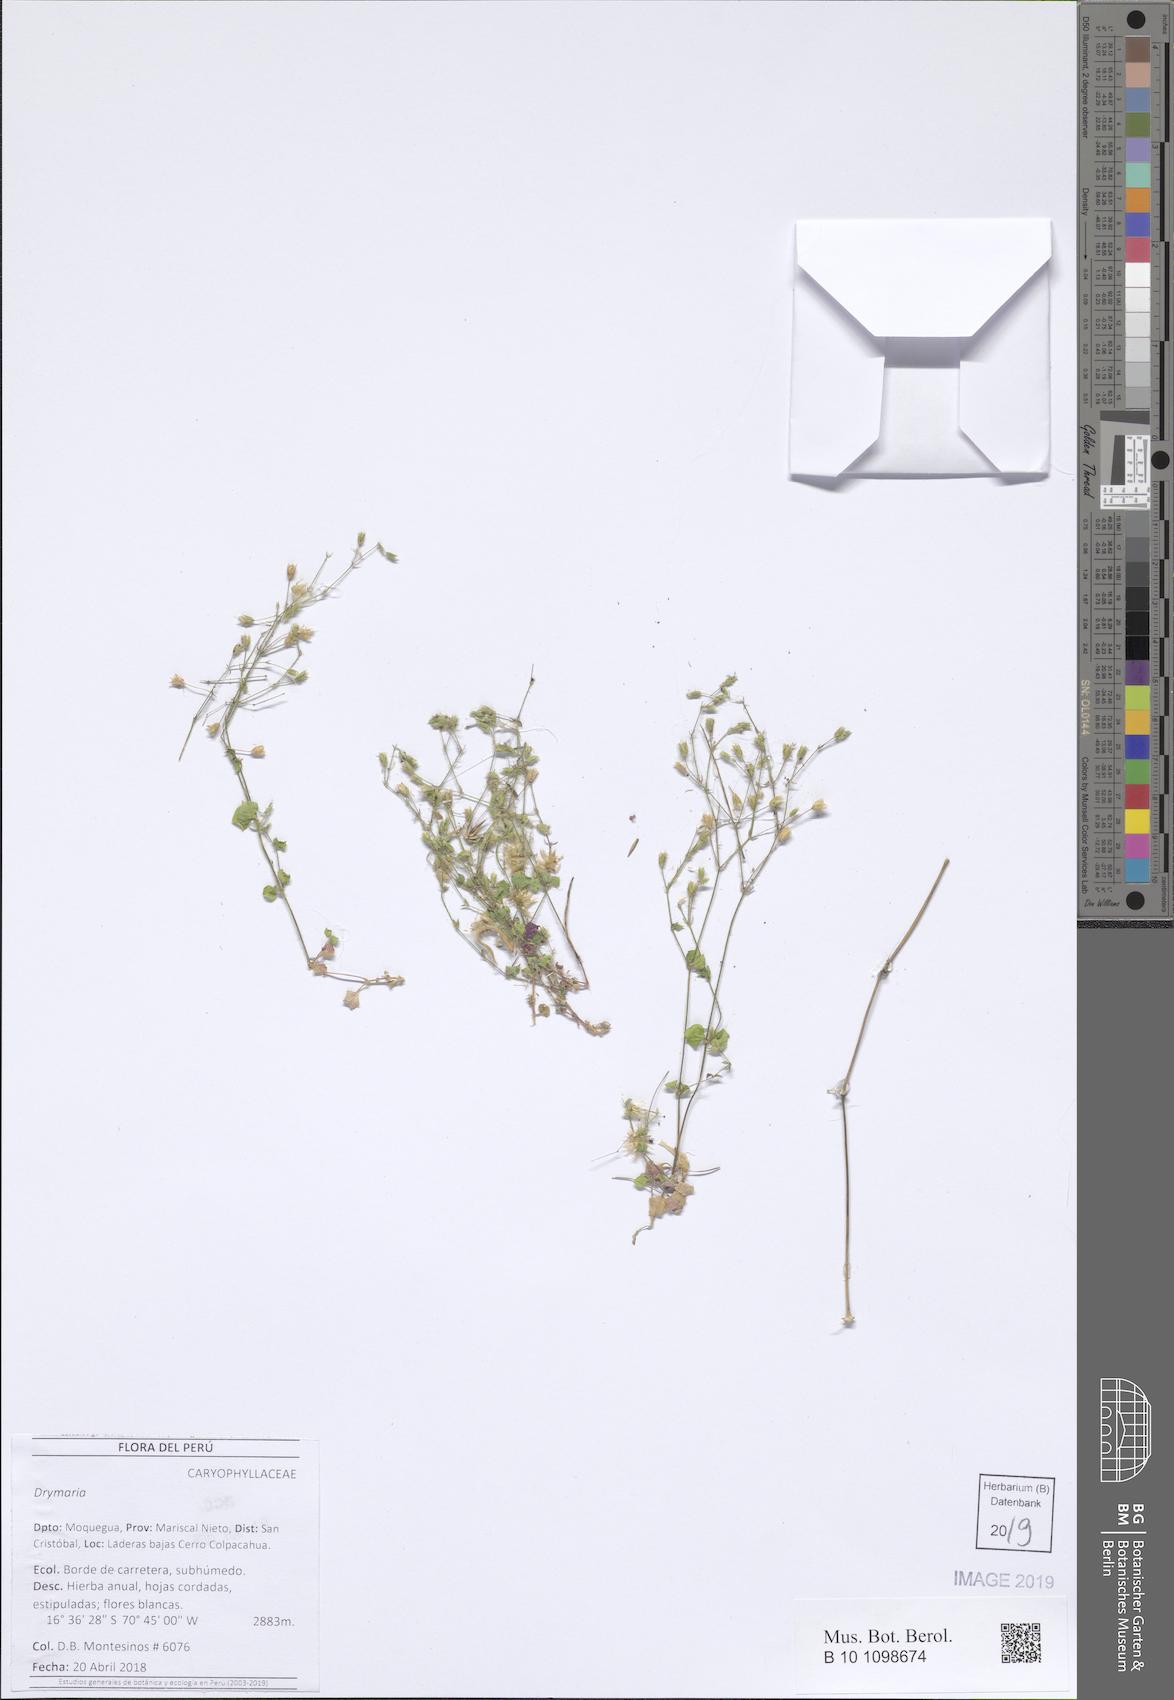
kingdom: Plantae
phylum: Tracheophyta
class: Magnoliopsida
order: Caryophyllales
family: Caryophyllaceae
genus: Drymaria
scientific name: Drymaria
